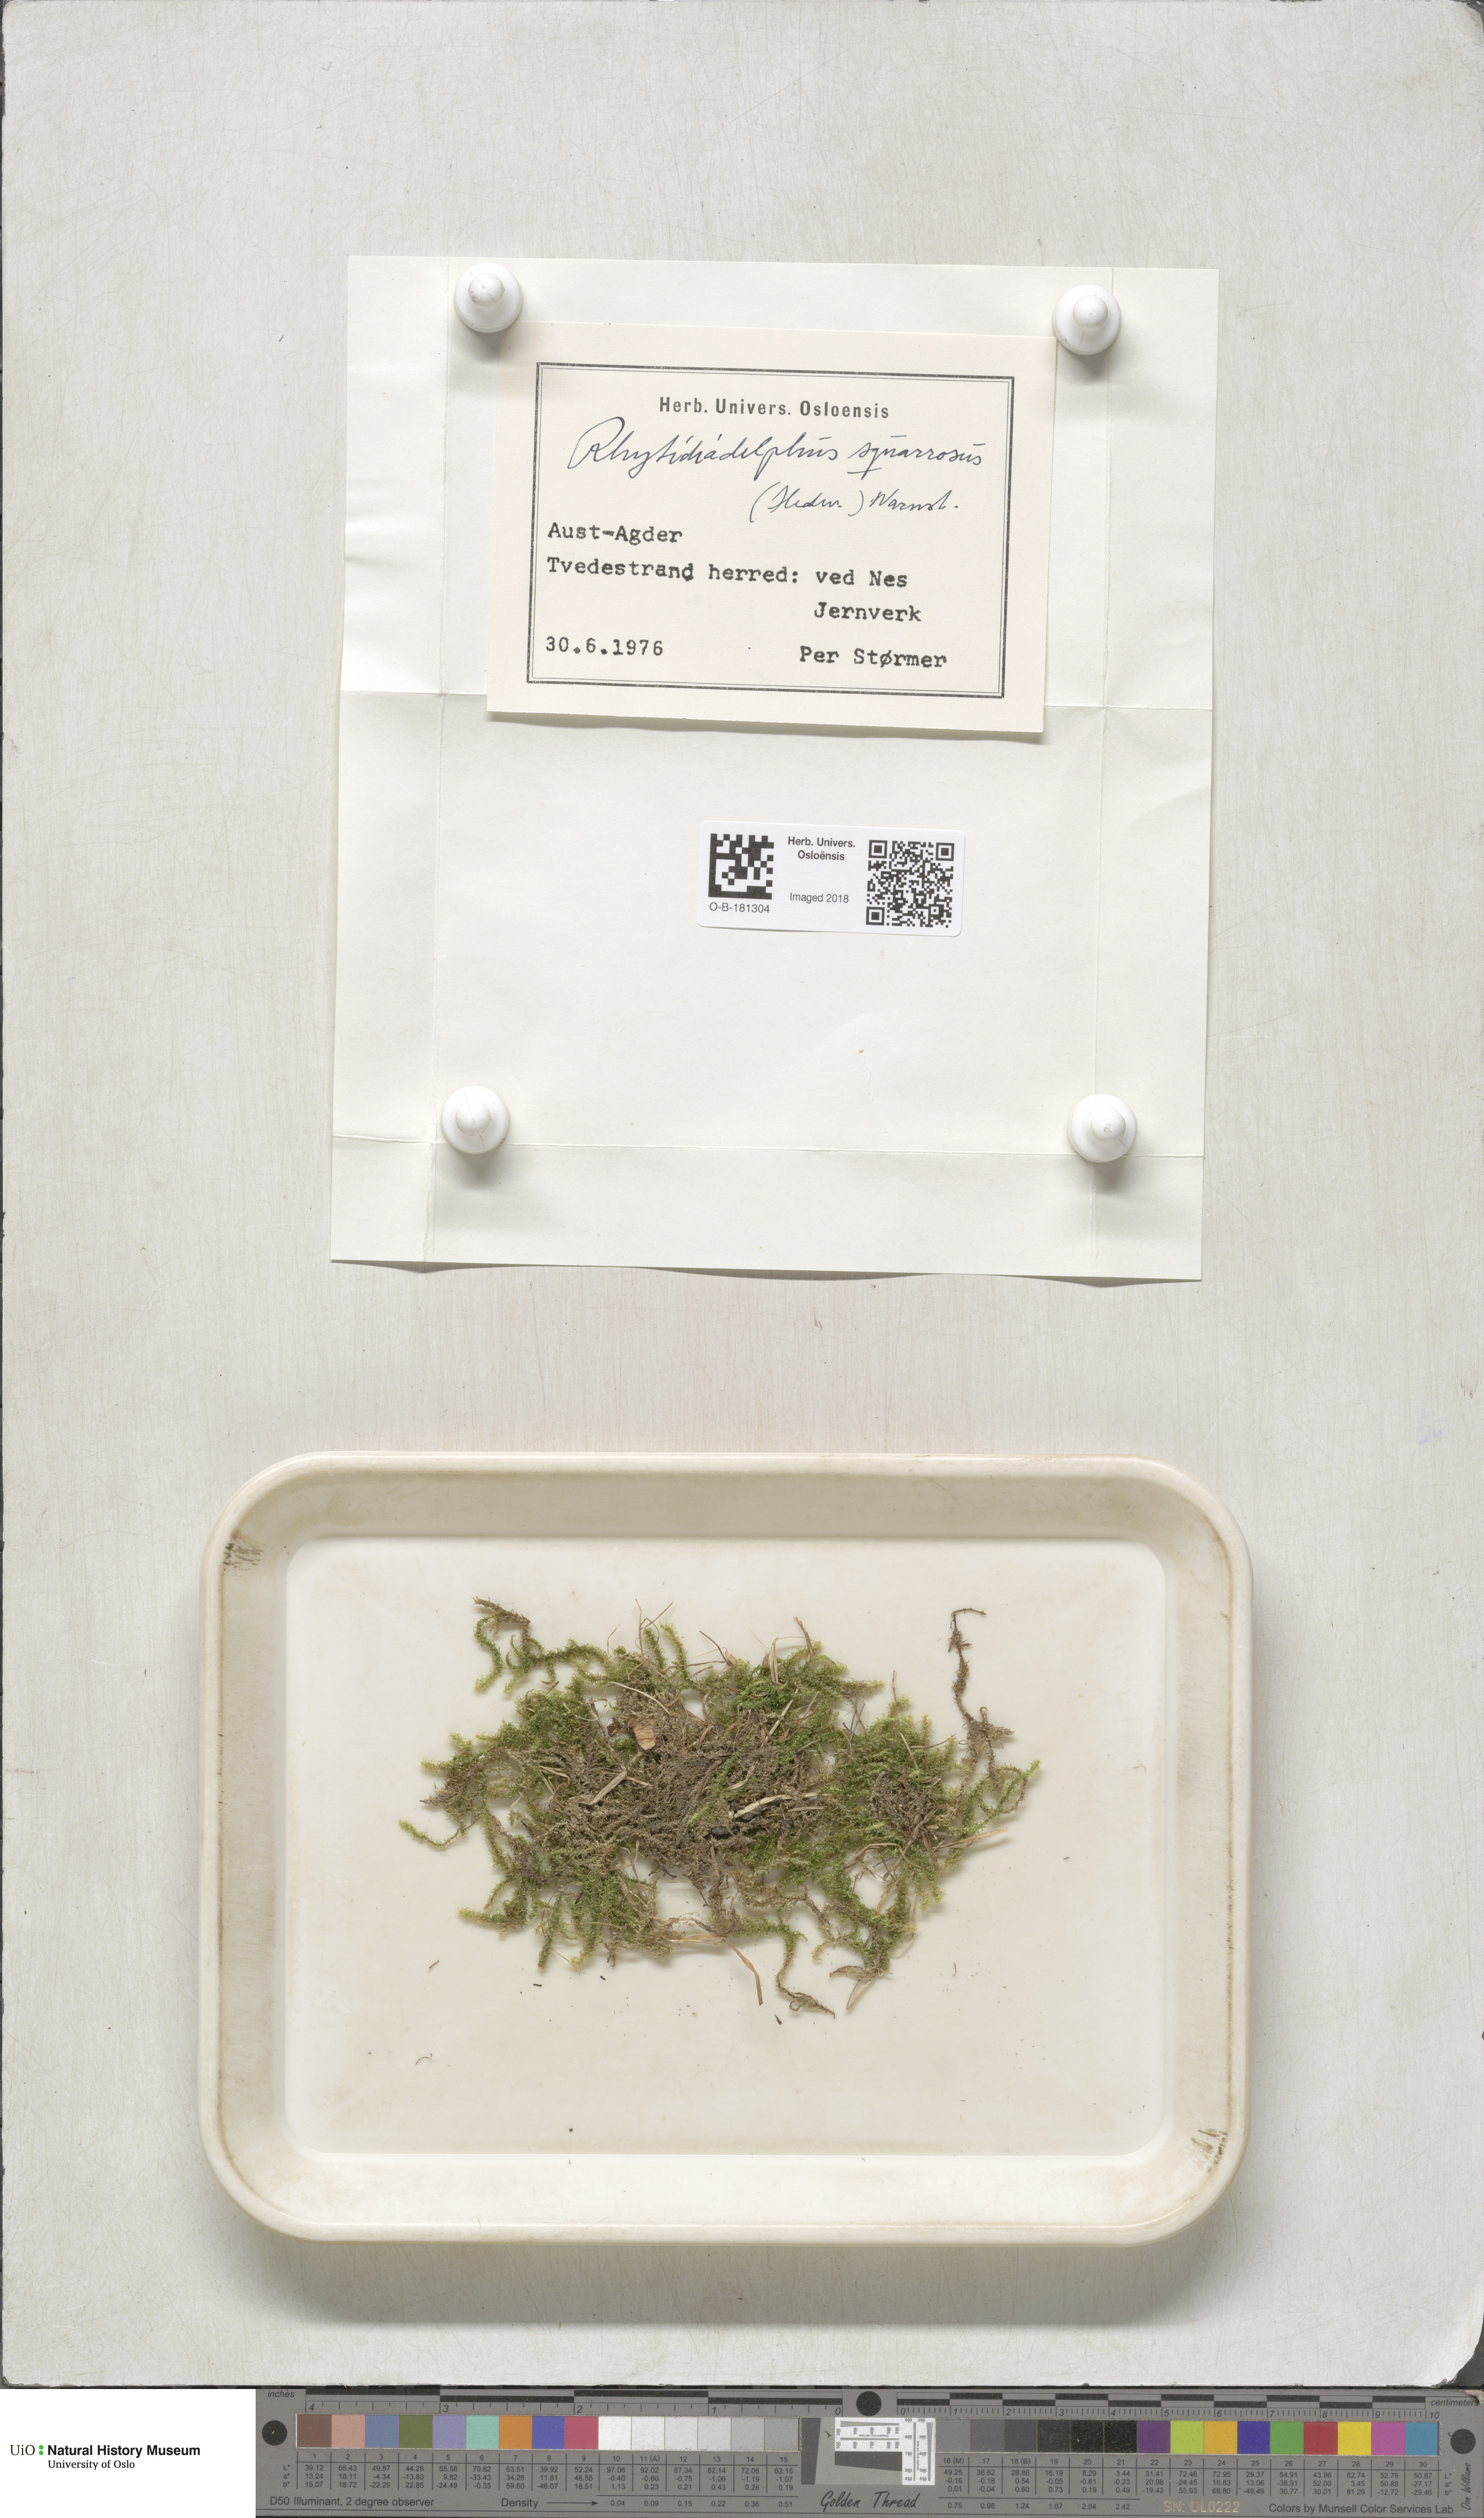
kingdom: Plantae
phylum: Bryophyta
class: Bryopsida
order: Hypnales
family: Hylocomiaceae
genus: Rhytidiadelphus
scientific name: Rhytidiadelphus squarrosus
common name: Springy turf-moss
